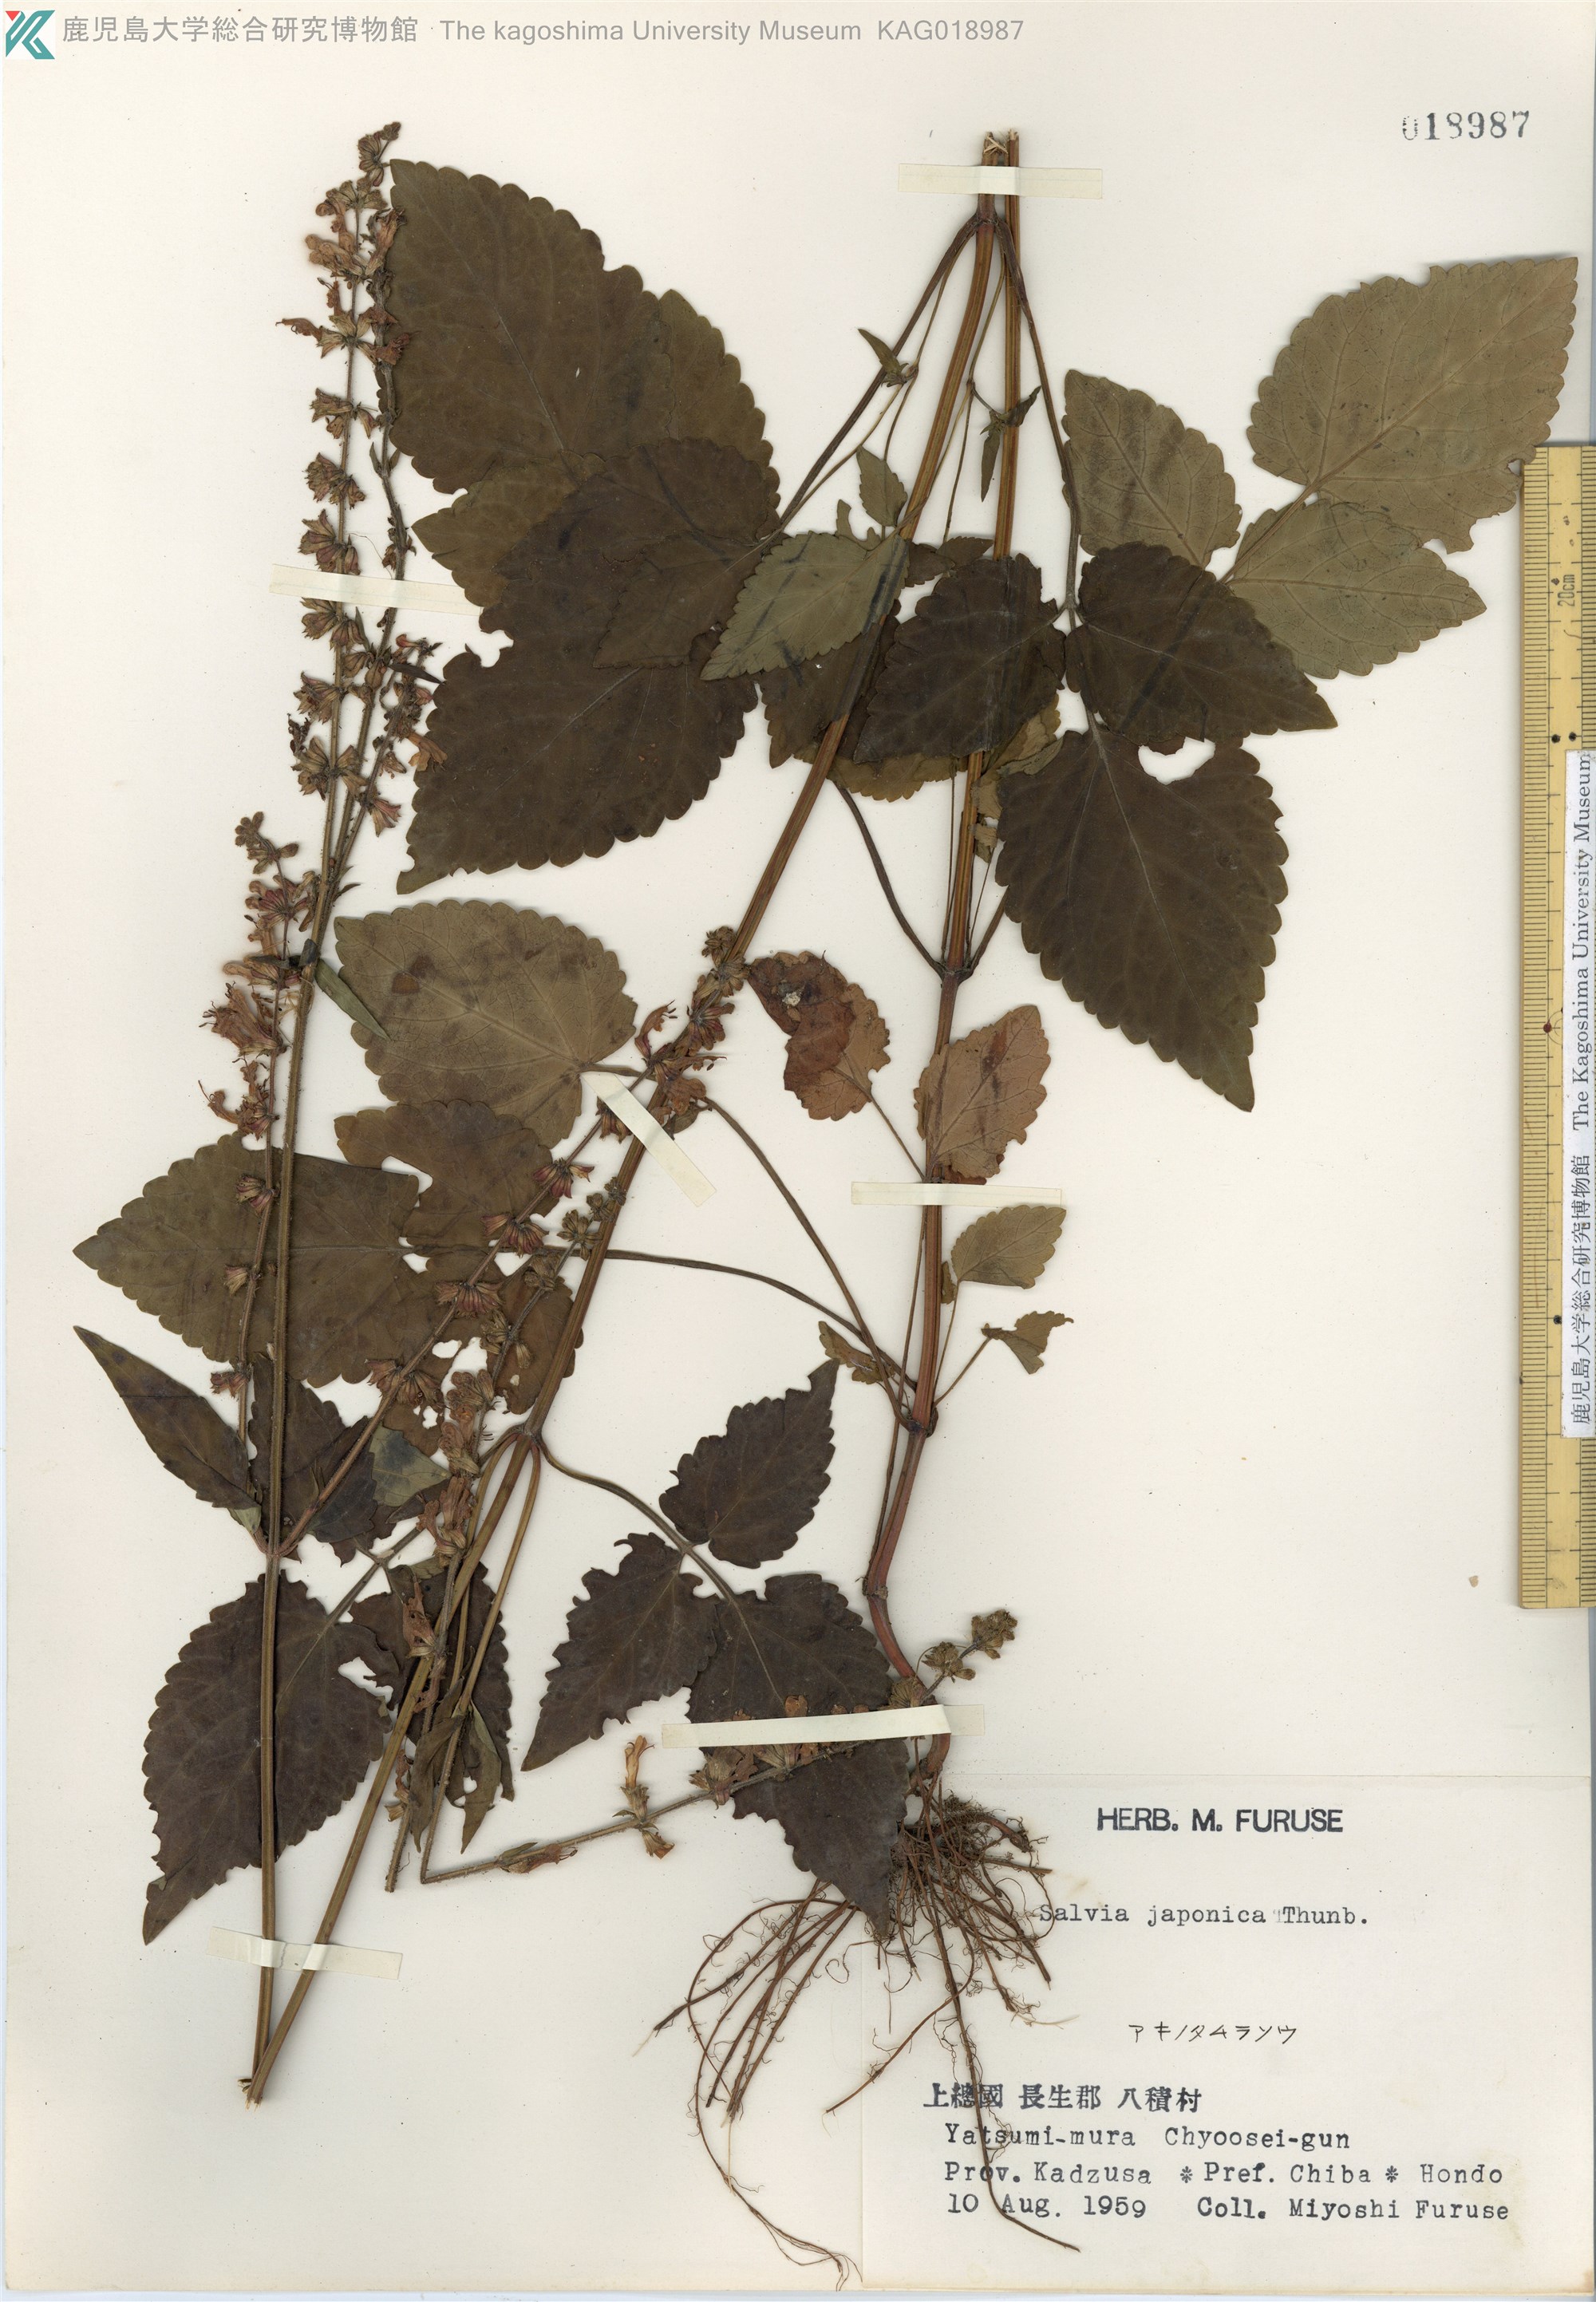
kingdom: Plantae
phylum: Tracheophyta
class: Magnoliopsida
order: Lamiales
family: Lamiaceae
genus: Salvia
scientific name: Salvia japonica
